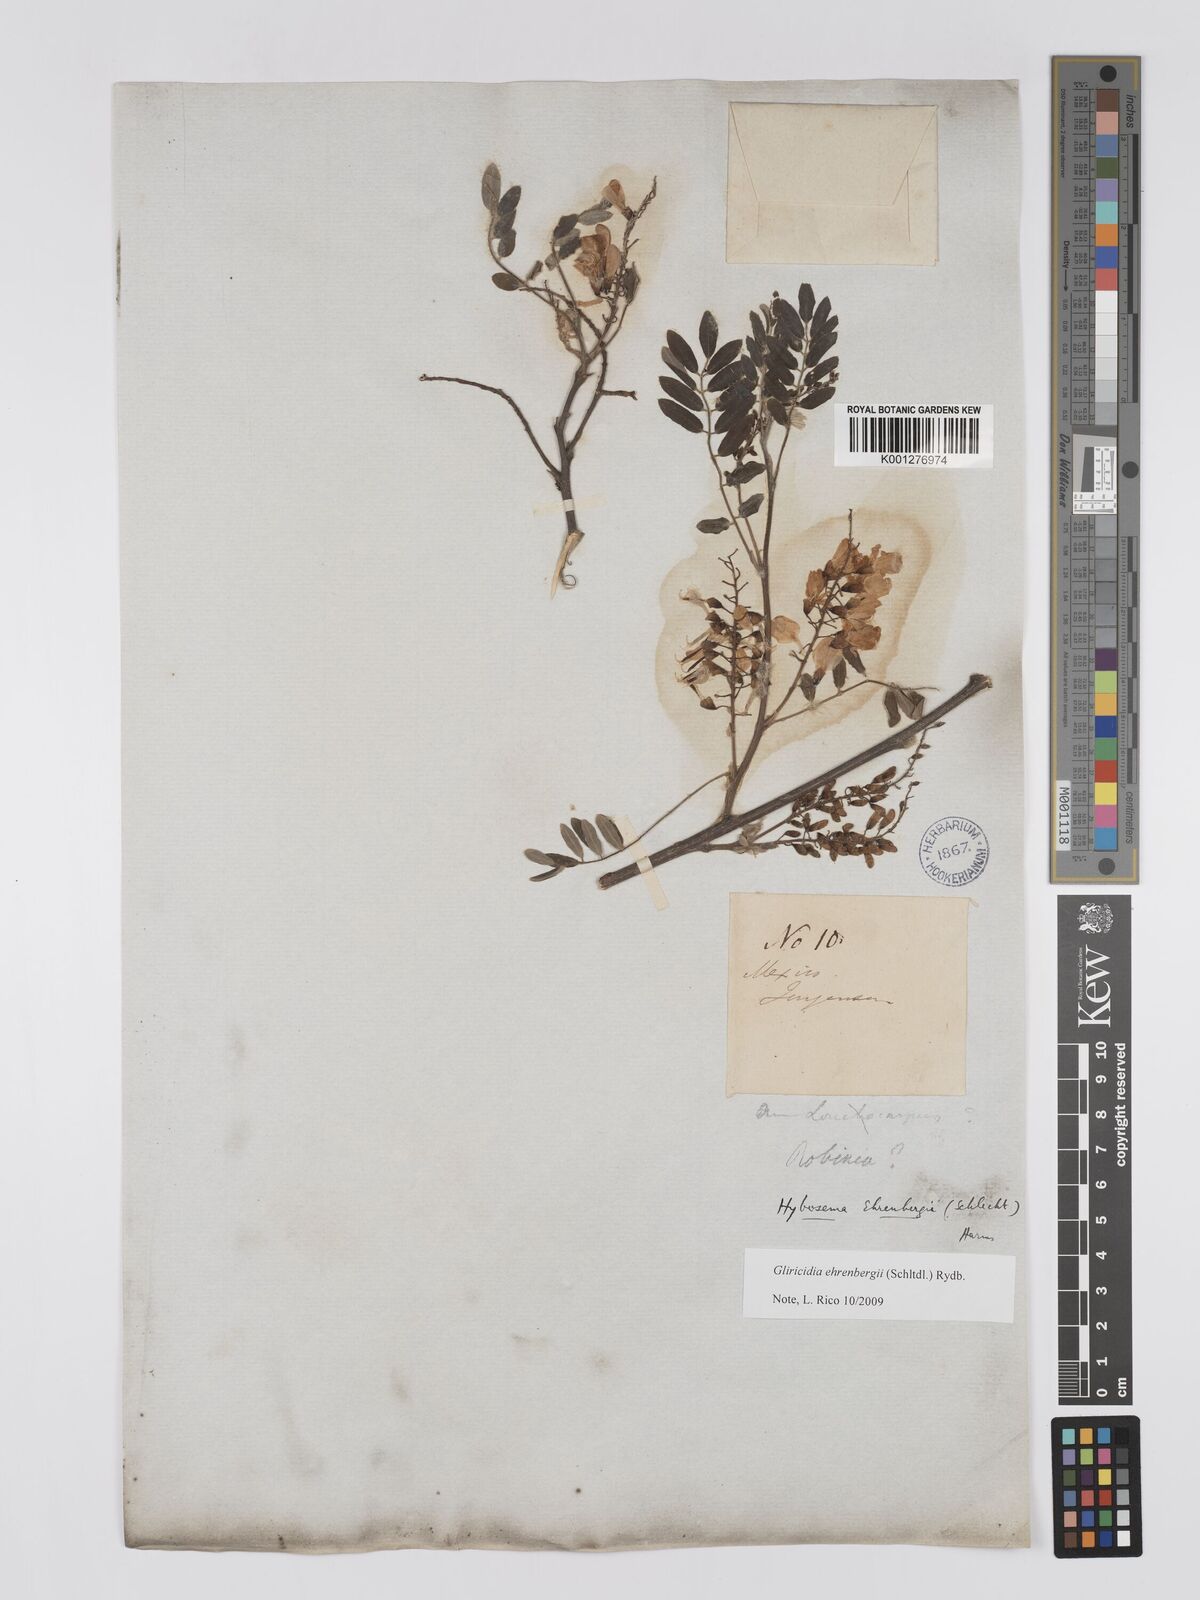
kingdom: Plantae
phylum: Tracheophyta
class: Magnoliopsida
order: Fabales
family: Fabaceae
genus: Gliricidia
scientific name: Gliricidia ehrenbergii
